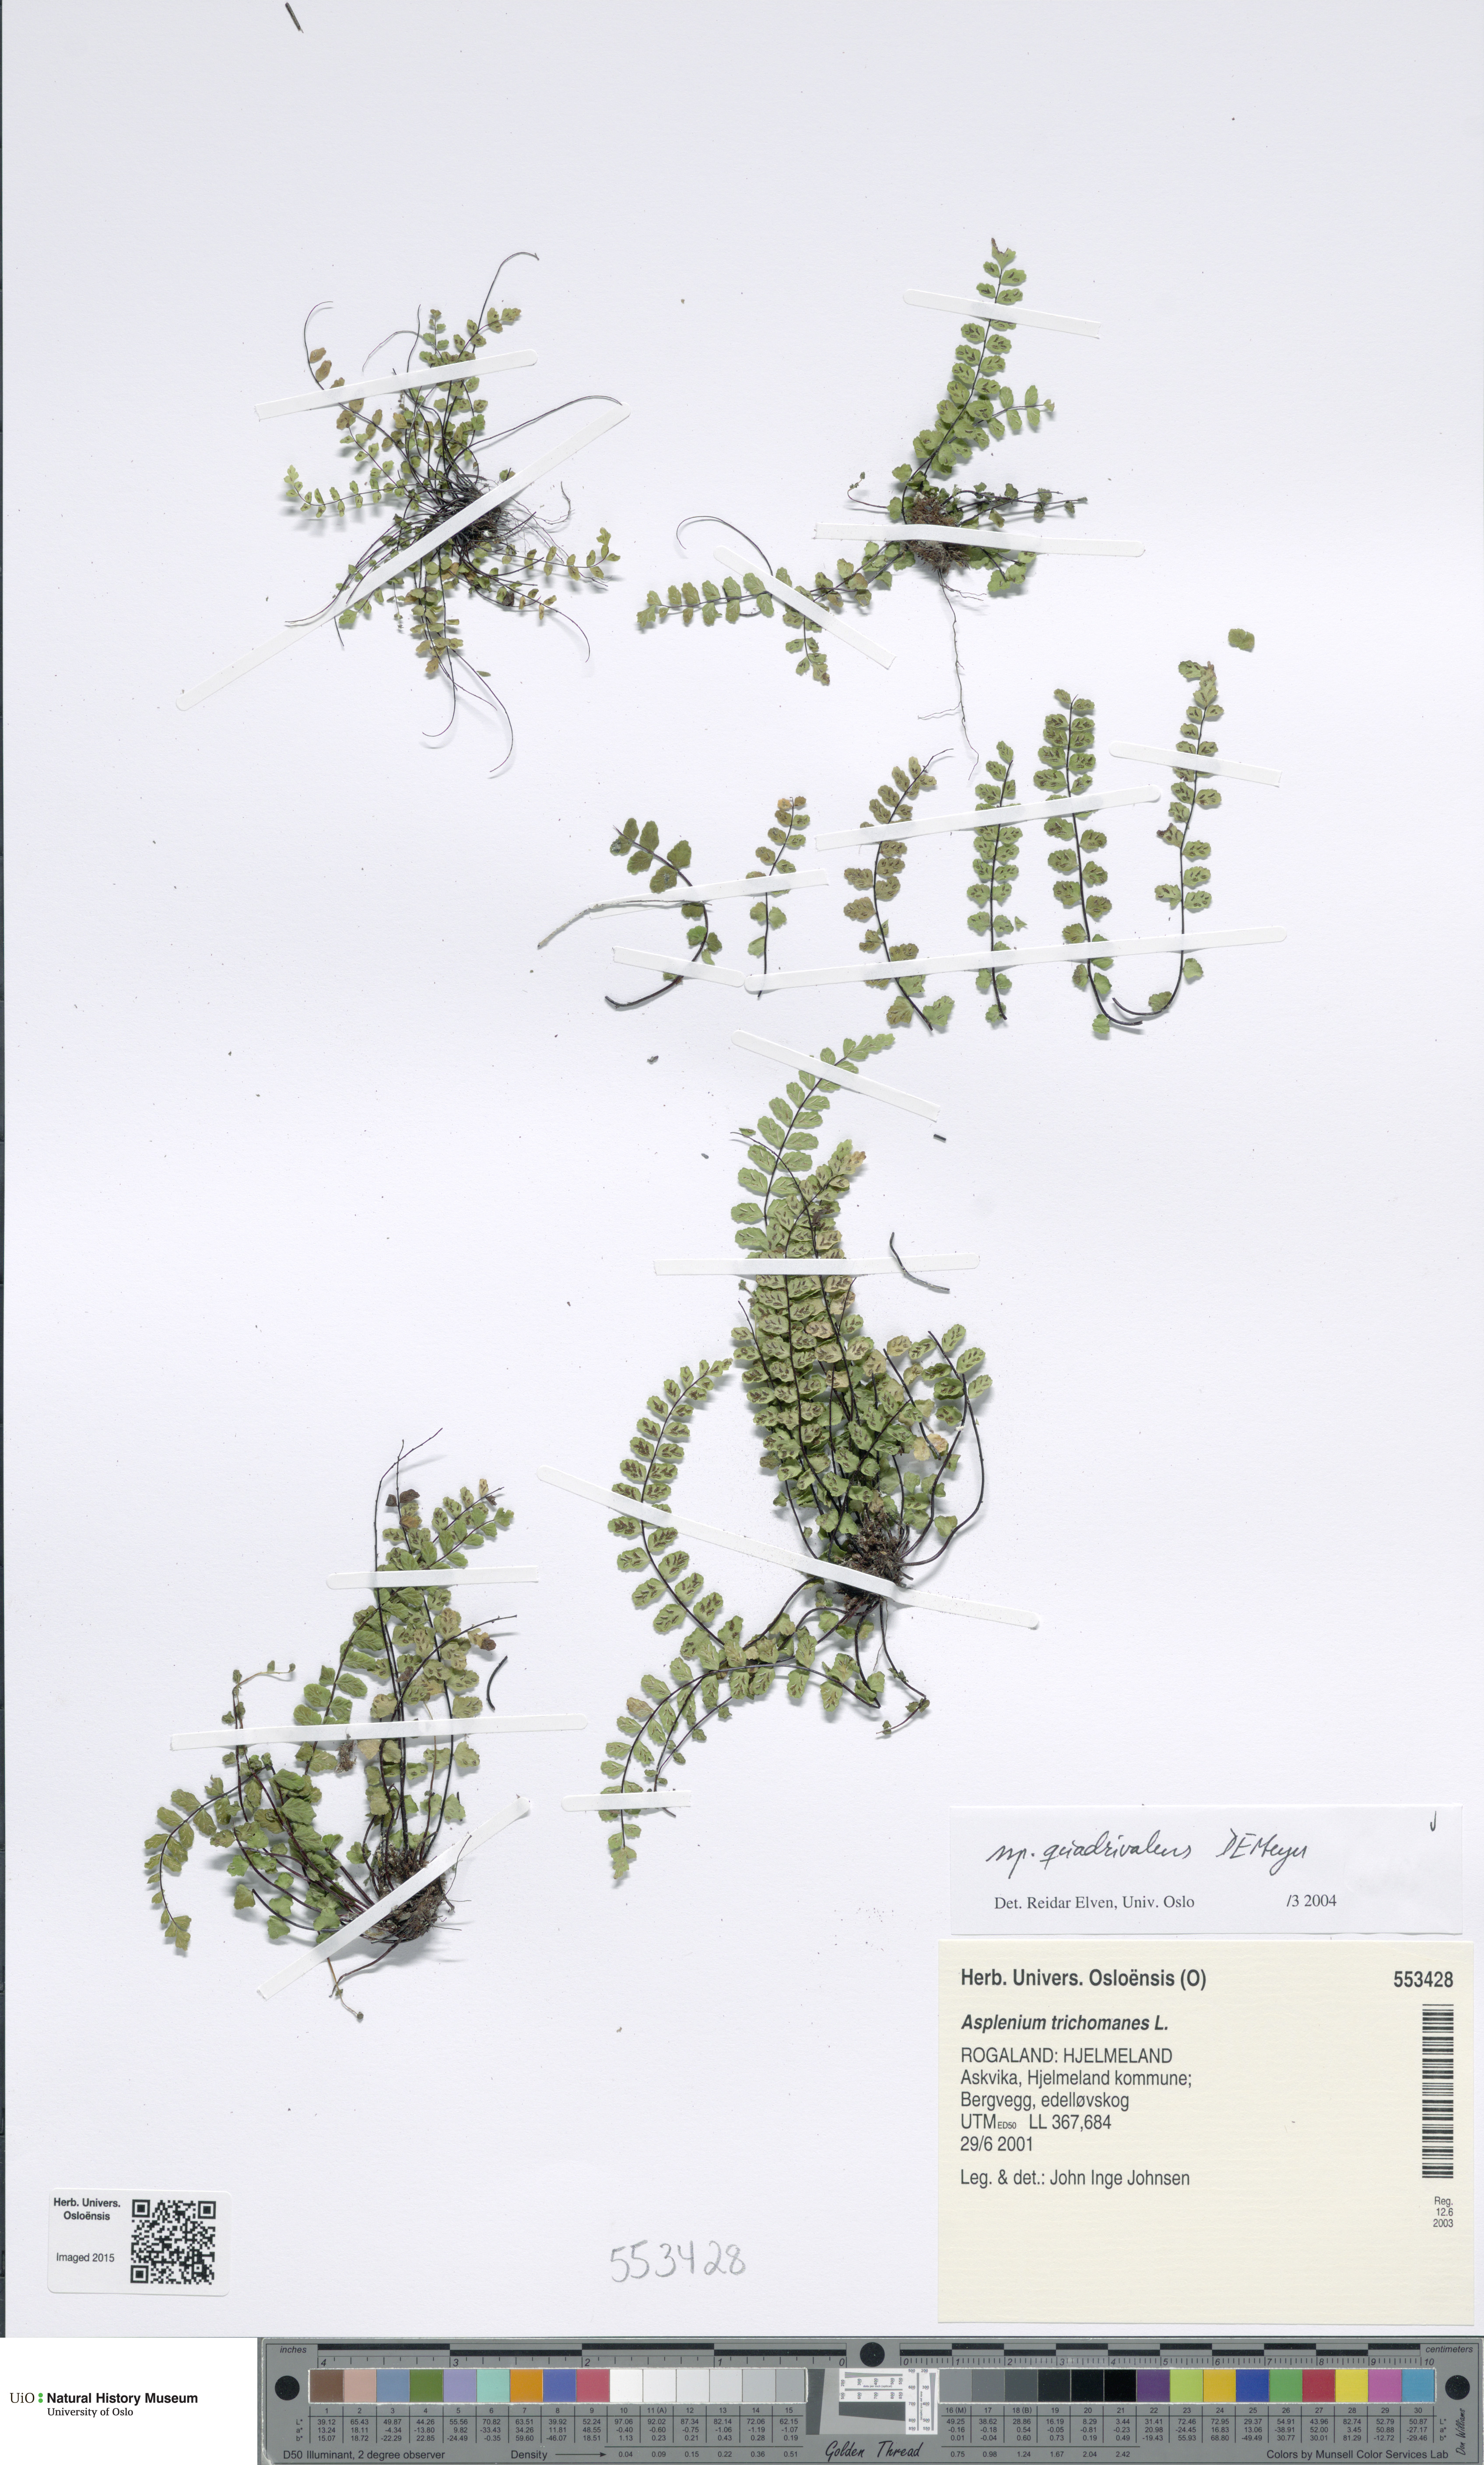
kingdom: Plantae
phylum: Tracheophyta
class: Polypodiopsida
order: Polypodiales
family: Aspleniaceae
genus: Asplenium
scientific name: Asplenium quadrivalens
